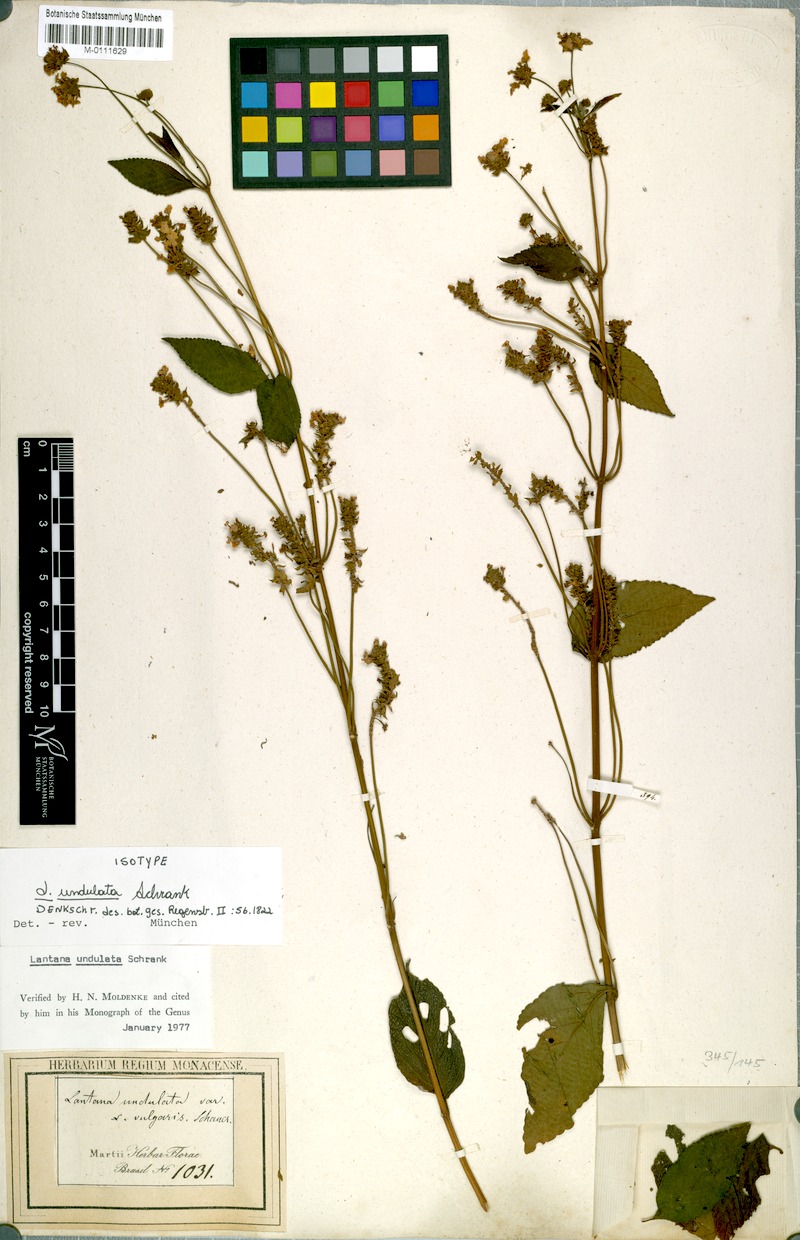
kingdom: Plantae
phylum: Tracheophyta
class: Magnoliopsida
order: Lamiales
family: Verbenaceae
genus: Lantana
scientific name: Lantana undulata
